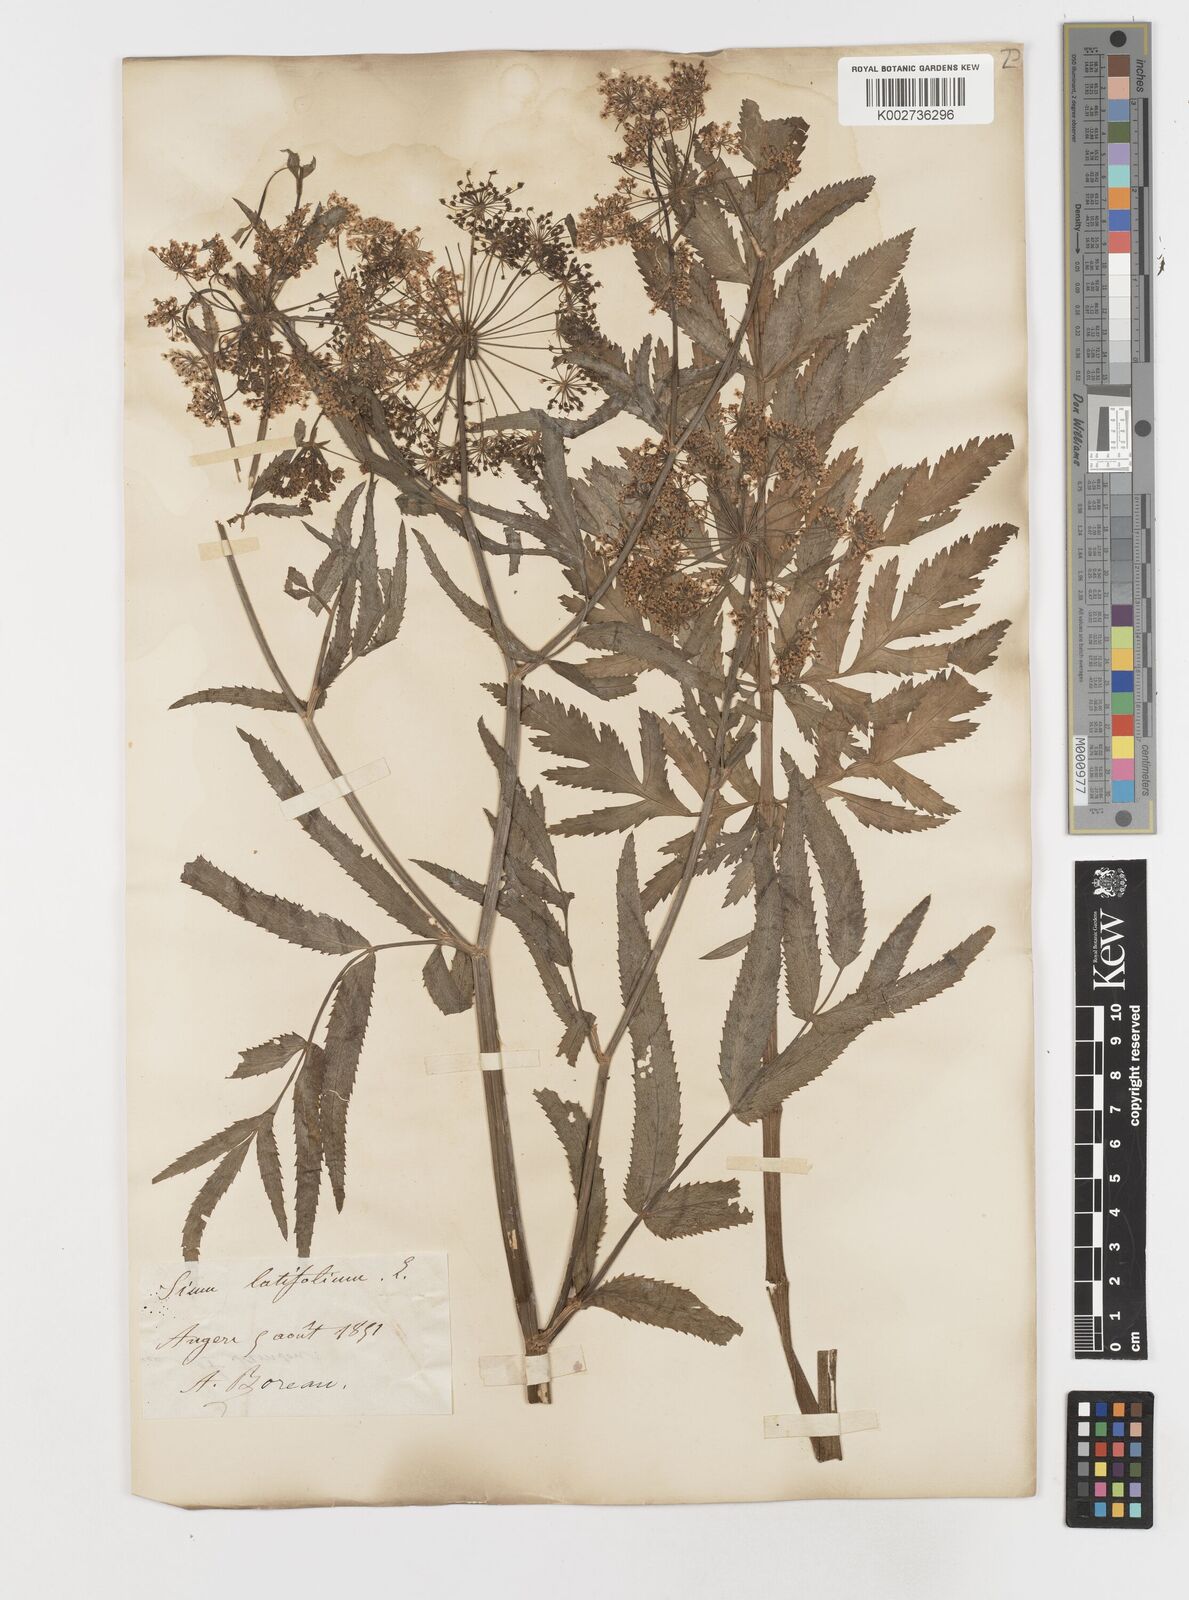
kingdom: Plantae
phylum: Tracheophyta
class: Magnoliopsida
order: Apiales
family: Apiaceae
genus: Sium
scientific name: Sium latifolium
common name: Greater water-parsnip
